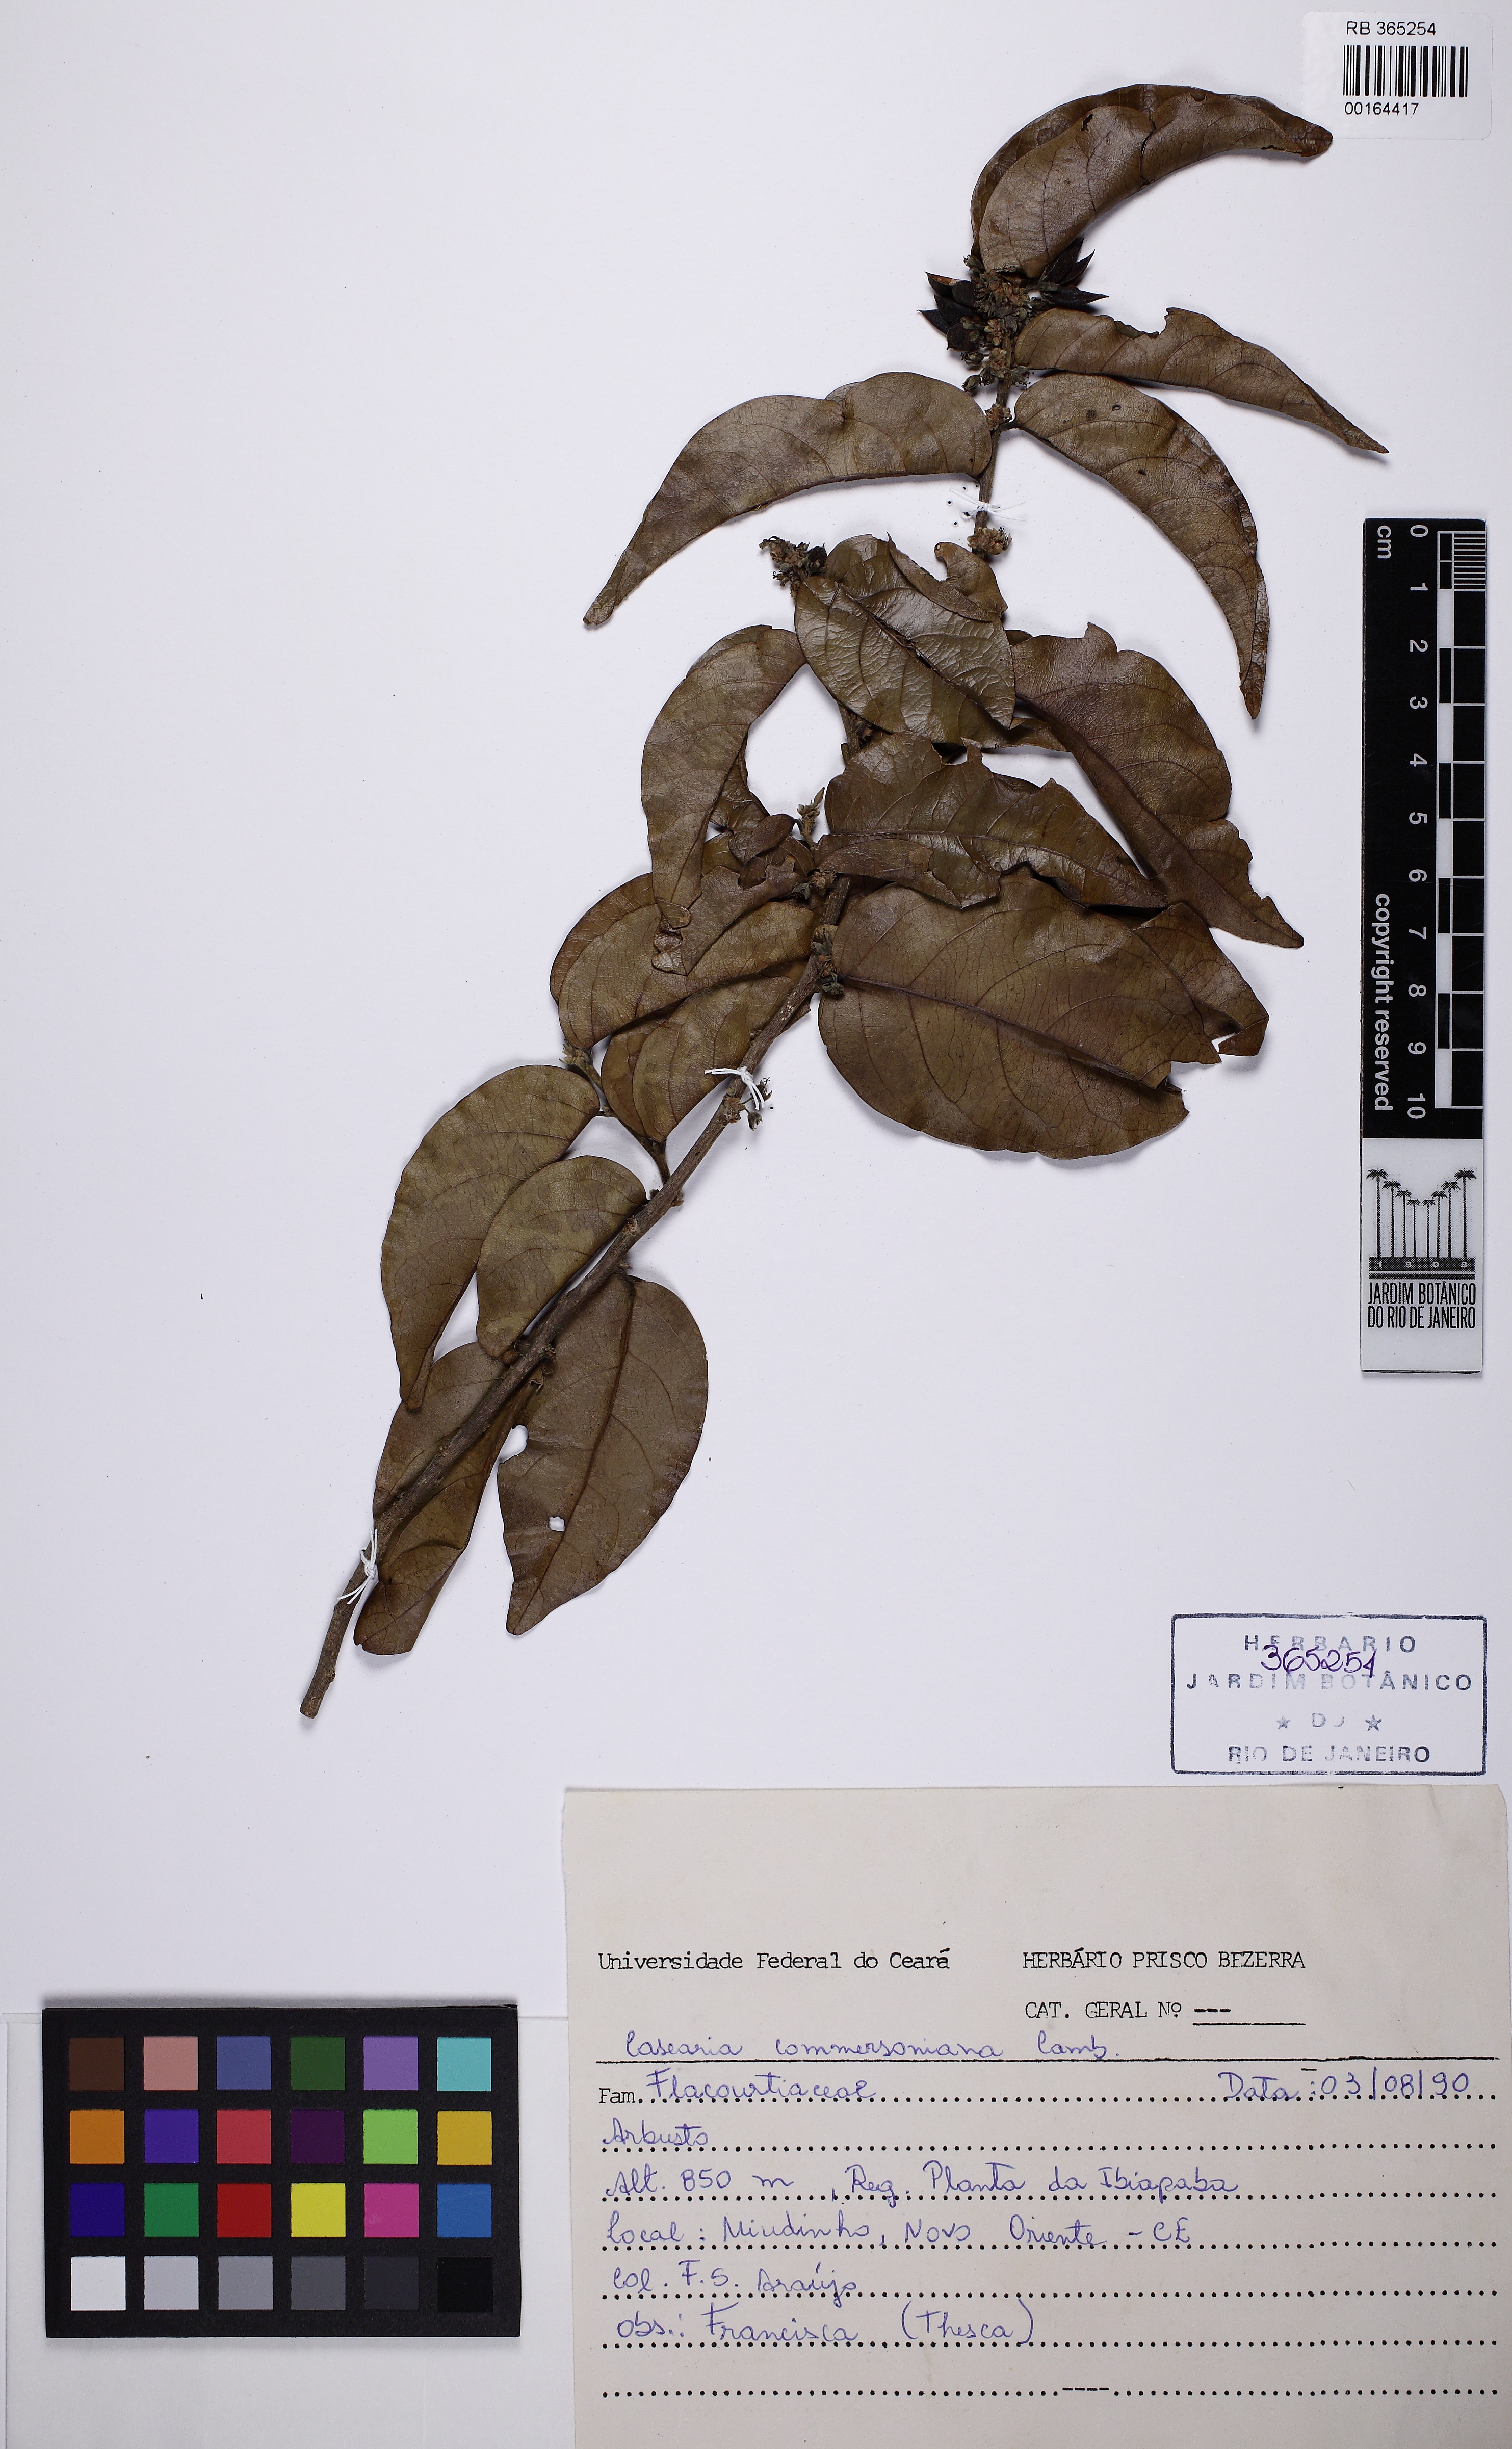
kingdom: Plantae
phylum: Tracheophyta
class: Magnoliopsida
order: Malpighiales
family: Salicaceae
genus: Piparea
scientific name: Piparea dentata
